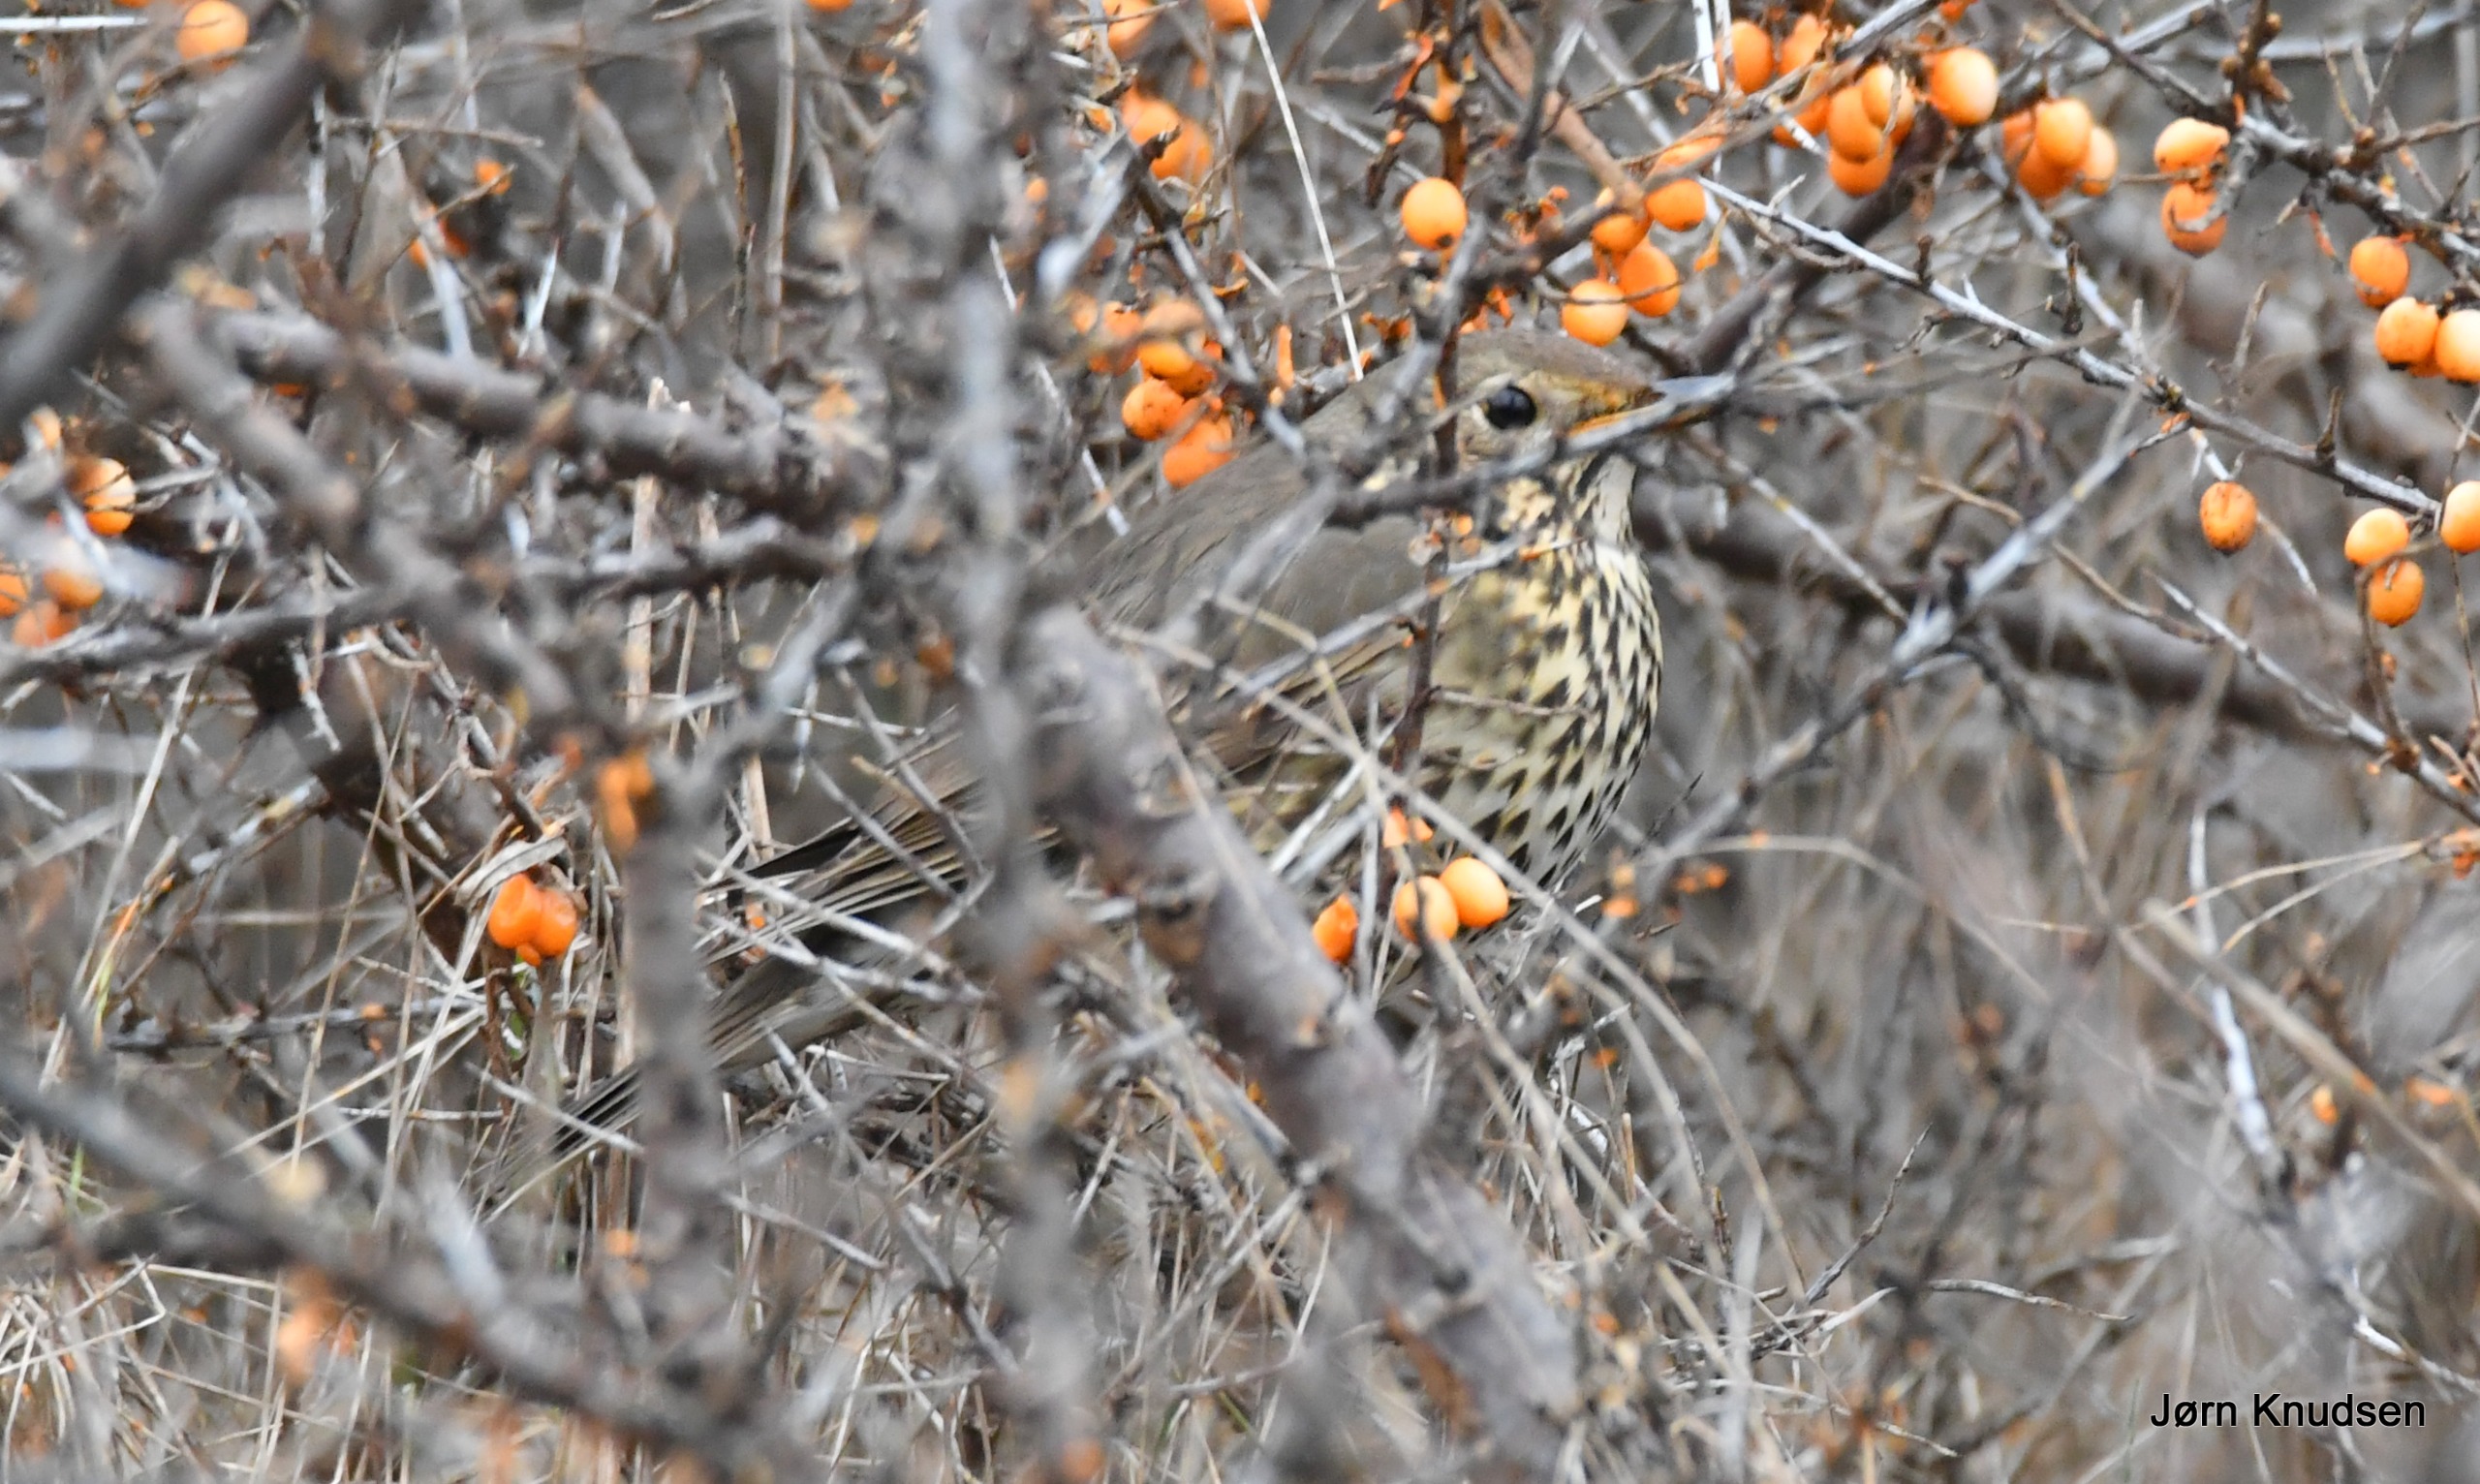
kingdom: Animalia
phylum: Chordata
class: Aves
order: Passeriformes
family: Turdidae
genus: Turdus
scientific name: Turdus philomelos
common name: Sangdrossel
